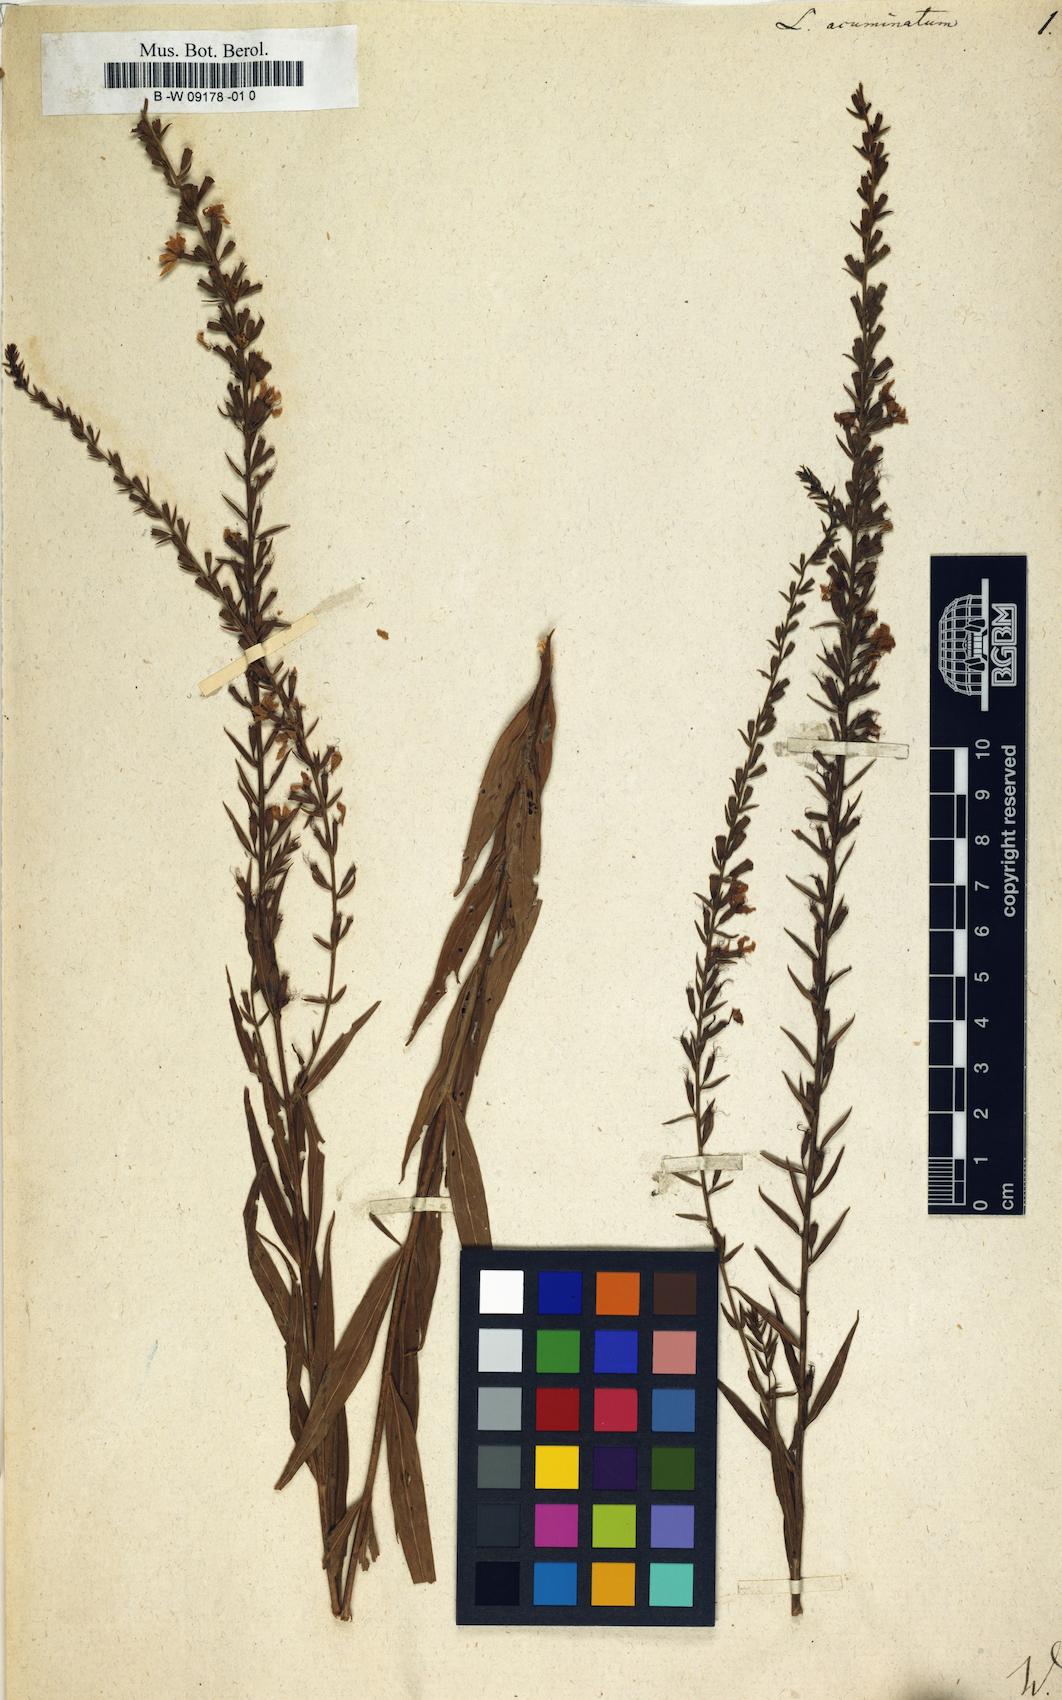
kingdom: Plantae
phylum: Tracheophyta
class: Magnoliopsida
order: Myrtales
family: Lythraceae
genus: Lythrum
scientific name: Lythrum virgatum
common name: European wand loosestrife
